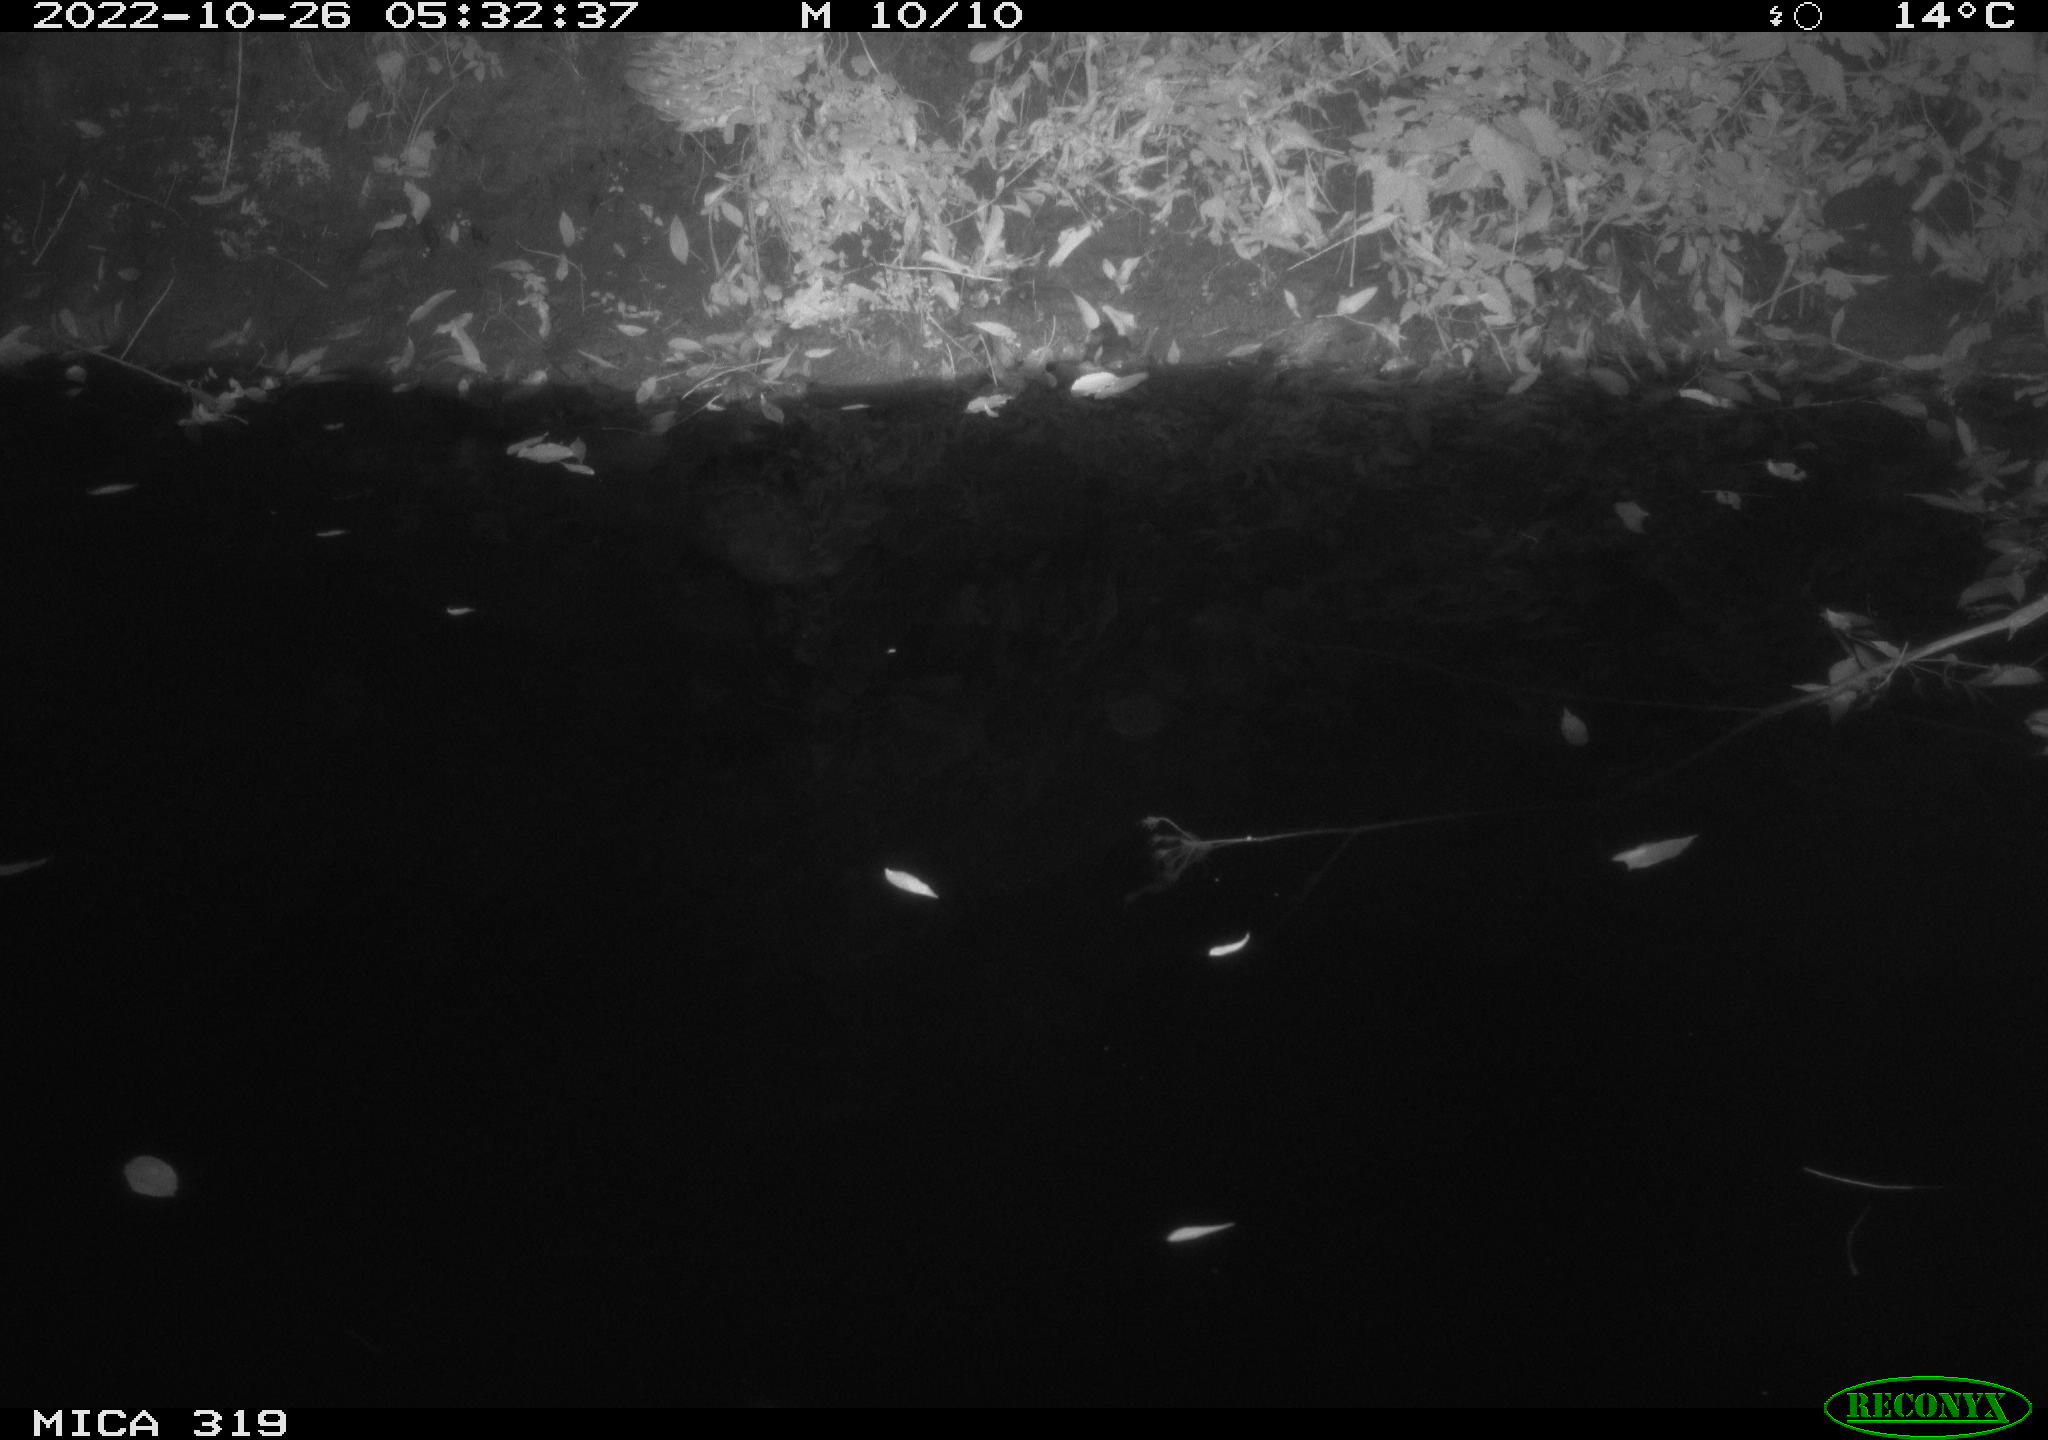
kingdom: Animalia
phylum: Chordata
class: Aves
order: Anseriformes
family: Anatidae
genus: Anas
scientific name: Anas
